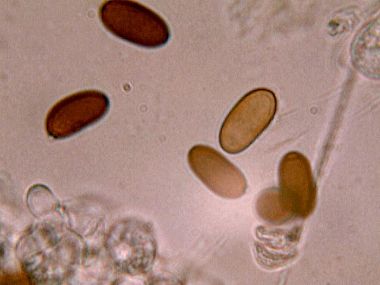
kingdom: Fungi
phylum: Basidiomycota
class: Agaricomycetes
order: Agaricales
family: Psathyrellaceae
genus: Psathyrella
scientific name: Psathyrella pseudogracilis
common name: slank mørkhat
